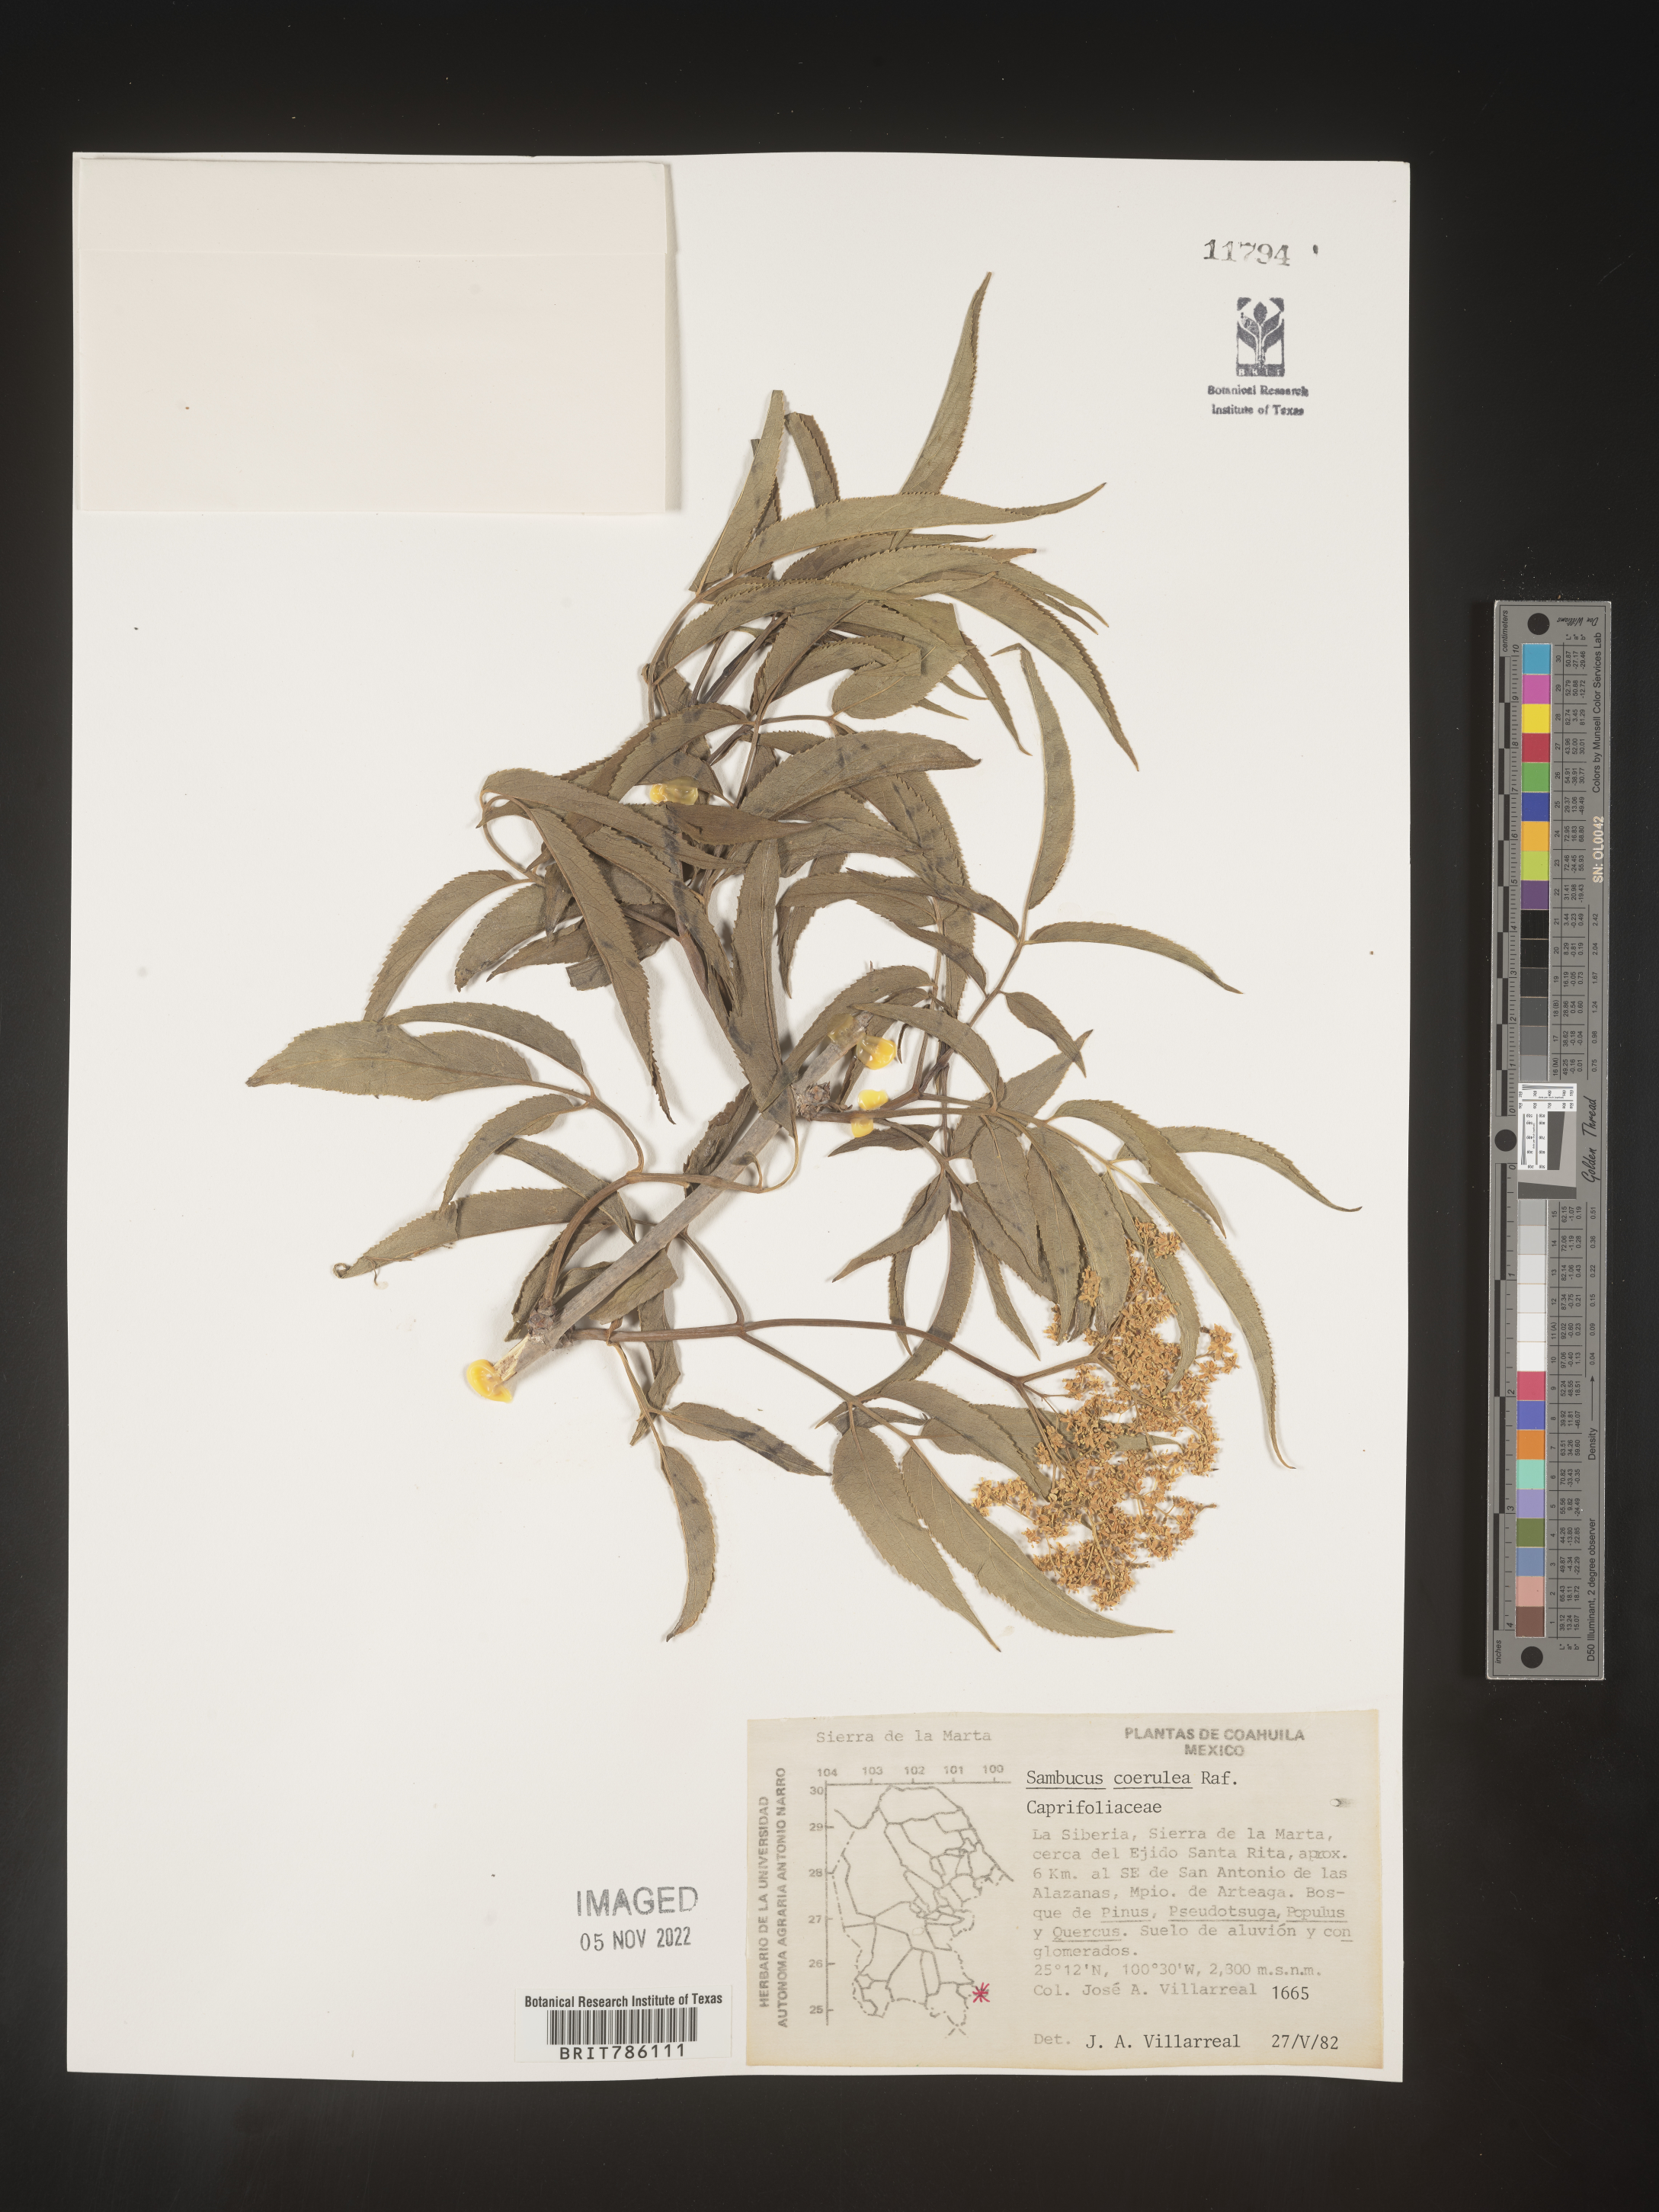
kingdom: Plantae
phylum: Tracheophyta
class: Magnoliopsida
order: Dipsacales
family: Viburnaceae
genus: Sambucus
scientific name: Sambucus
